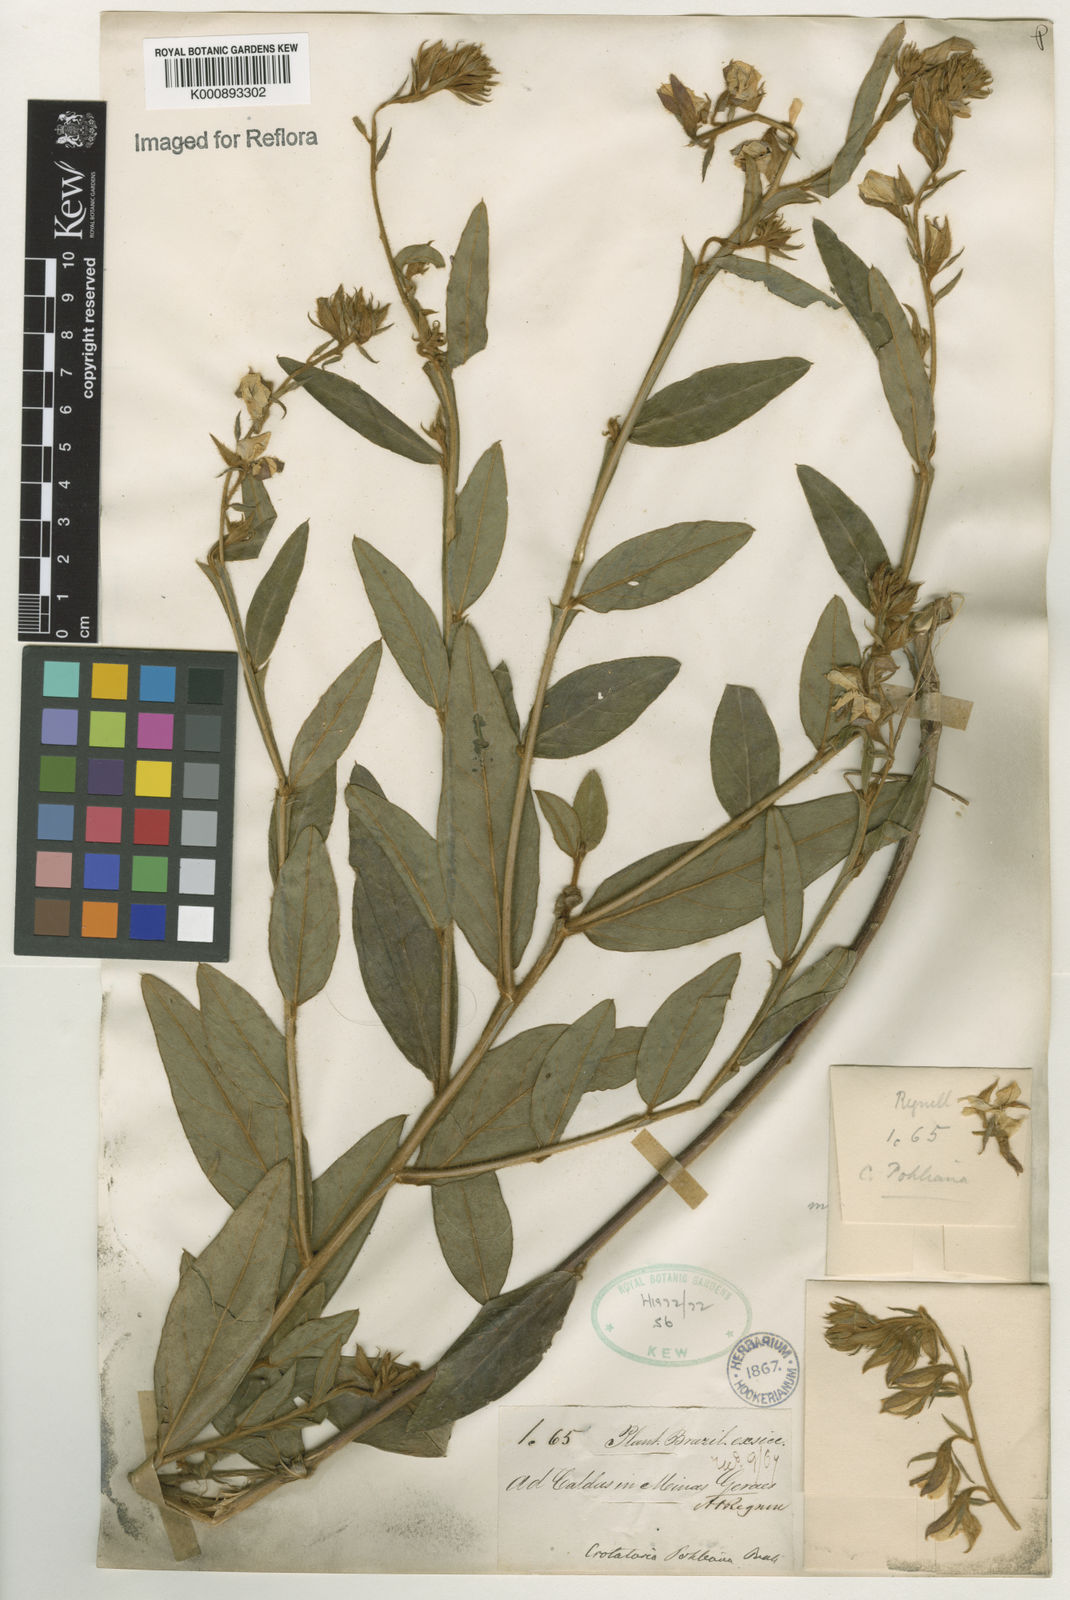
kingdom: Plantae
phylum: Tracheophyta
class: Magnoliopsida
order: Fabales
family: Fabaceae
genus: Crotalaria
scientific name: Crotalaria breviflora
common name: Short-flower crotalaria
